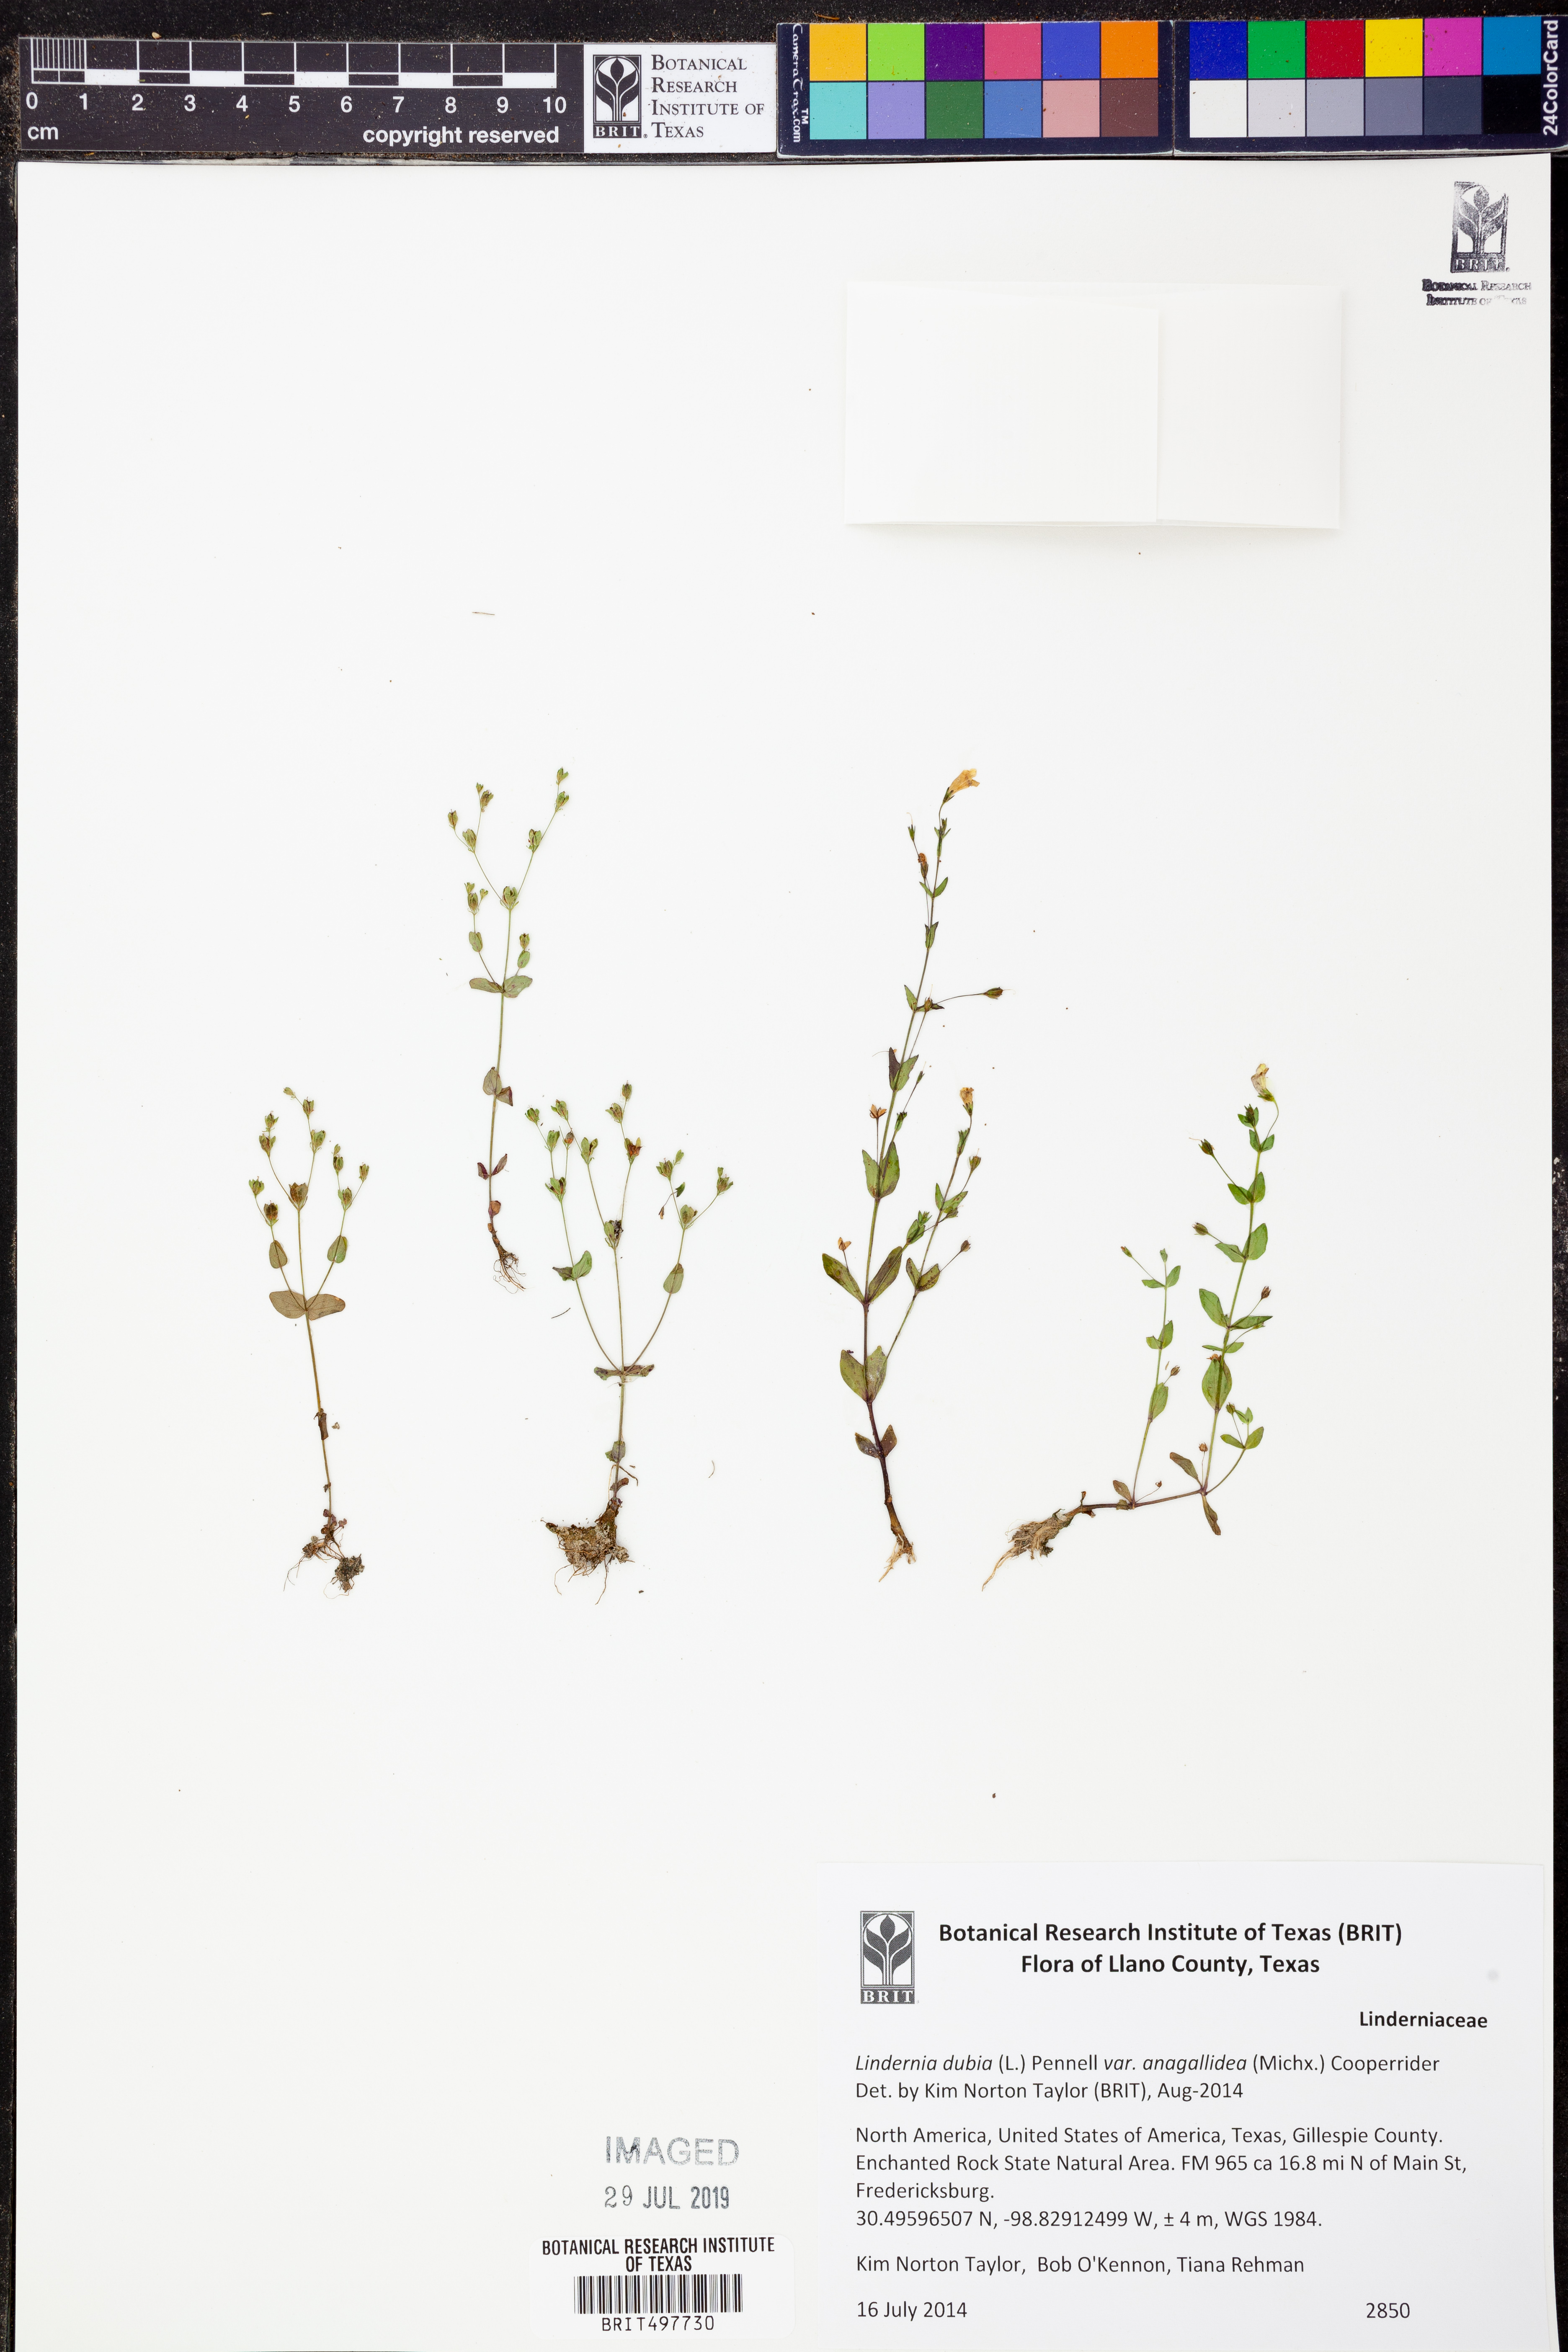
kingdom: Plantae
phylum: Tracheophyta
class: Magnoliopsida
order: Lamiales
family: Linderniaceae
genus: Lindernia
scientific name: Lindernia dubia
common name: Annual false pimpernel
